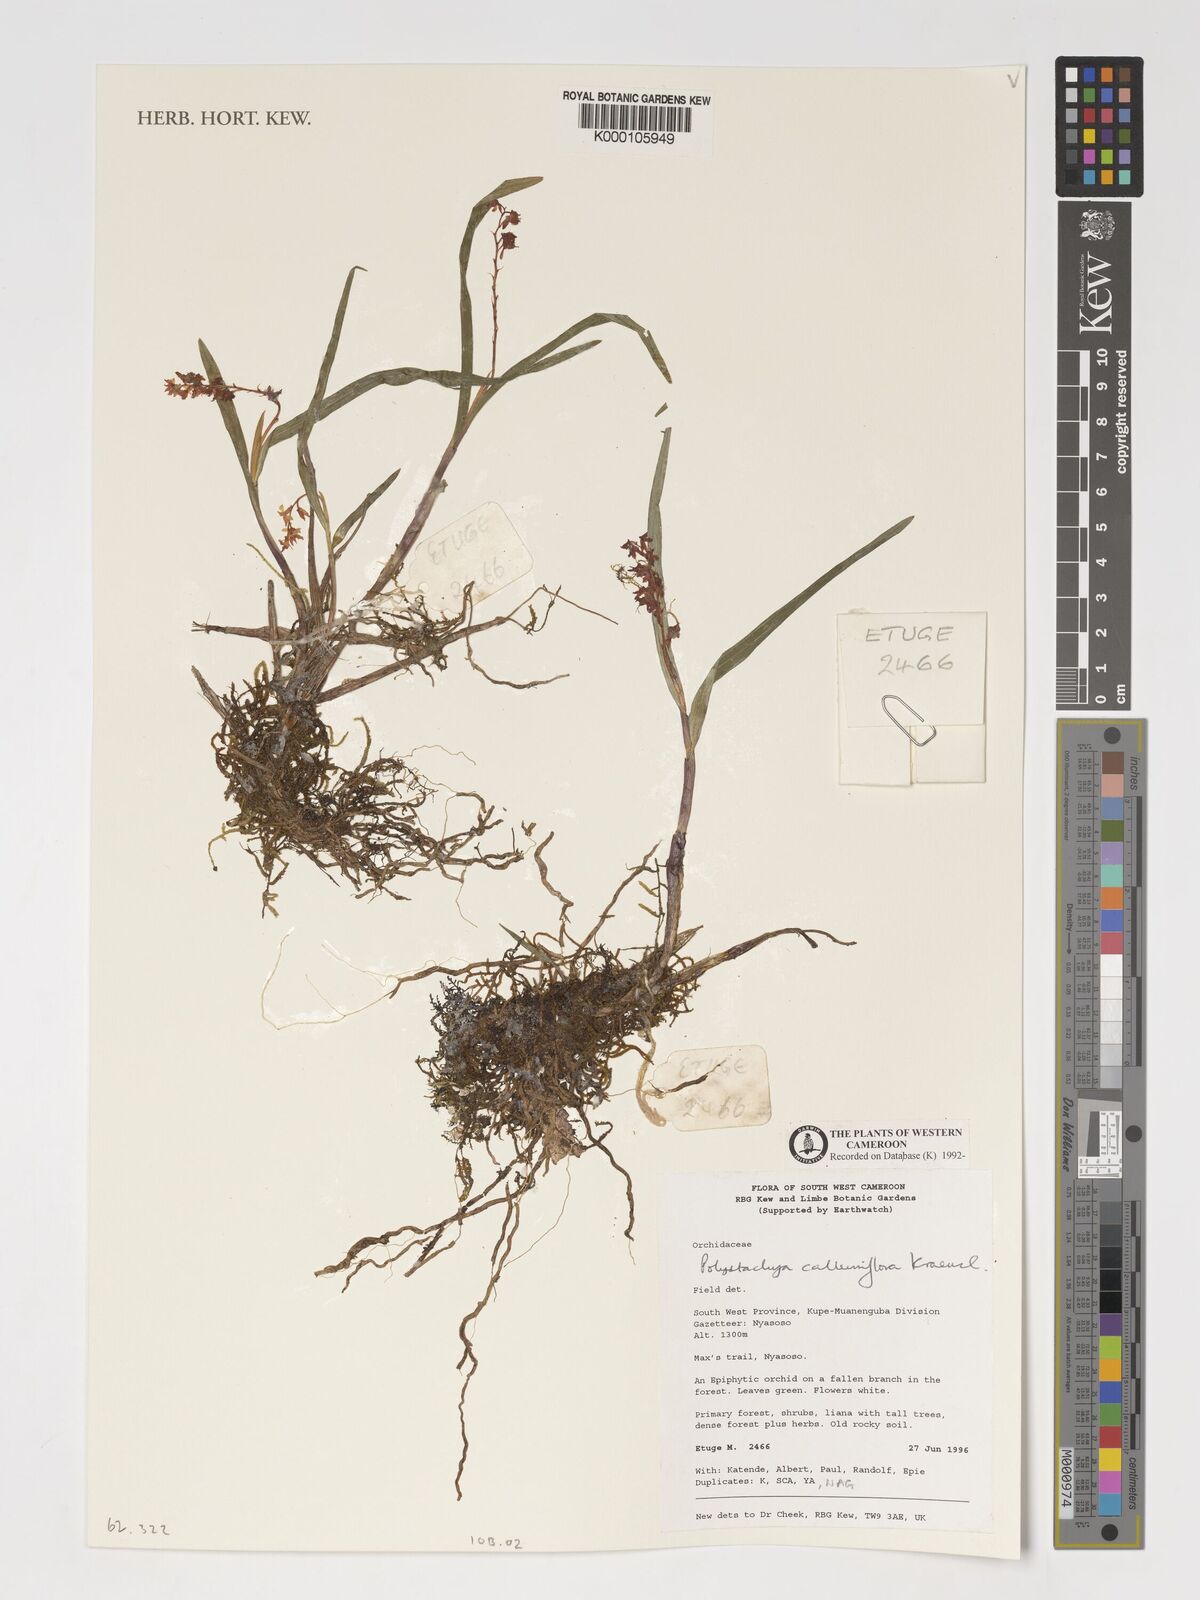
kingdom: Plantae
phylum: Tracheophyta
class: Liliopsida
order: Asparagales
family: Orchidaceae
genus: Polystachya
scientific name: Polystachya calluniflora
